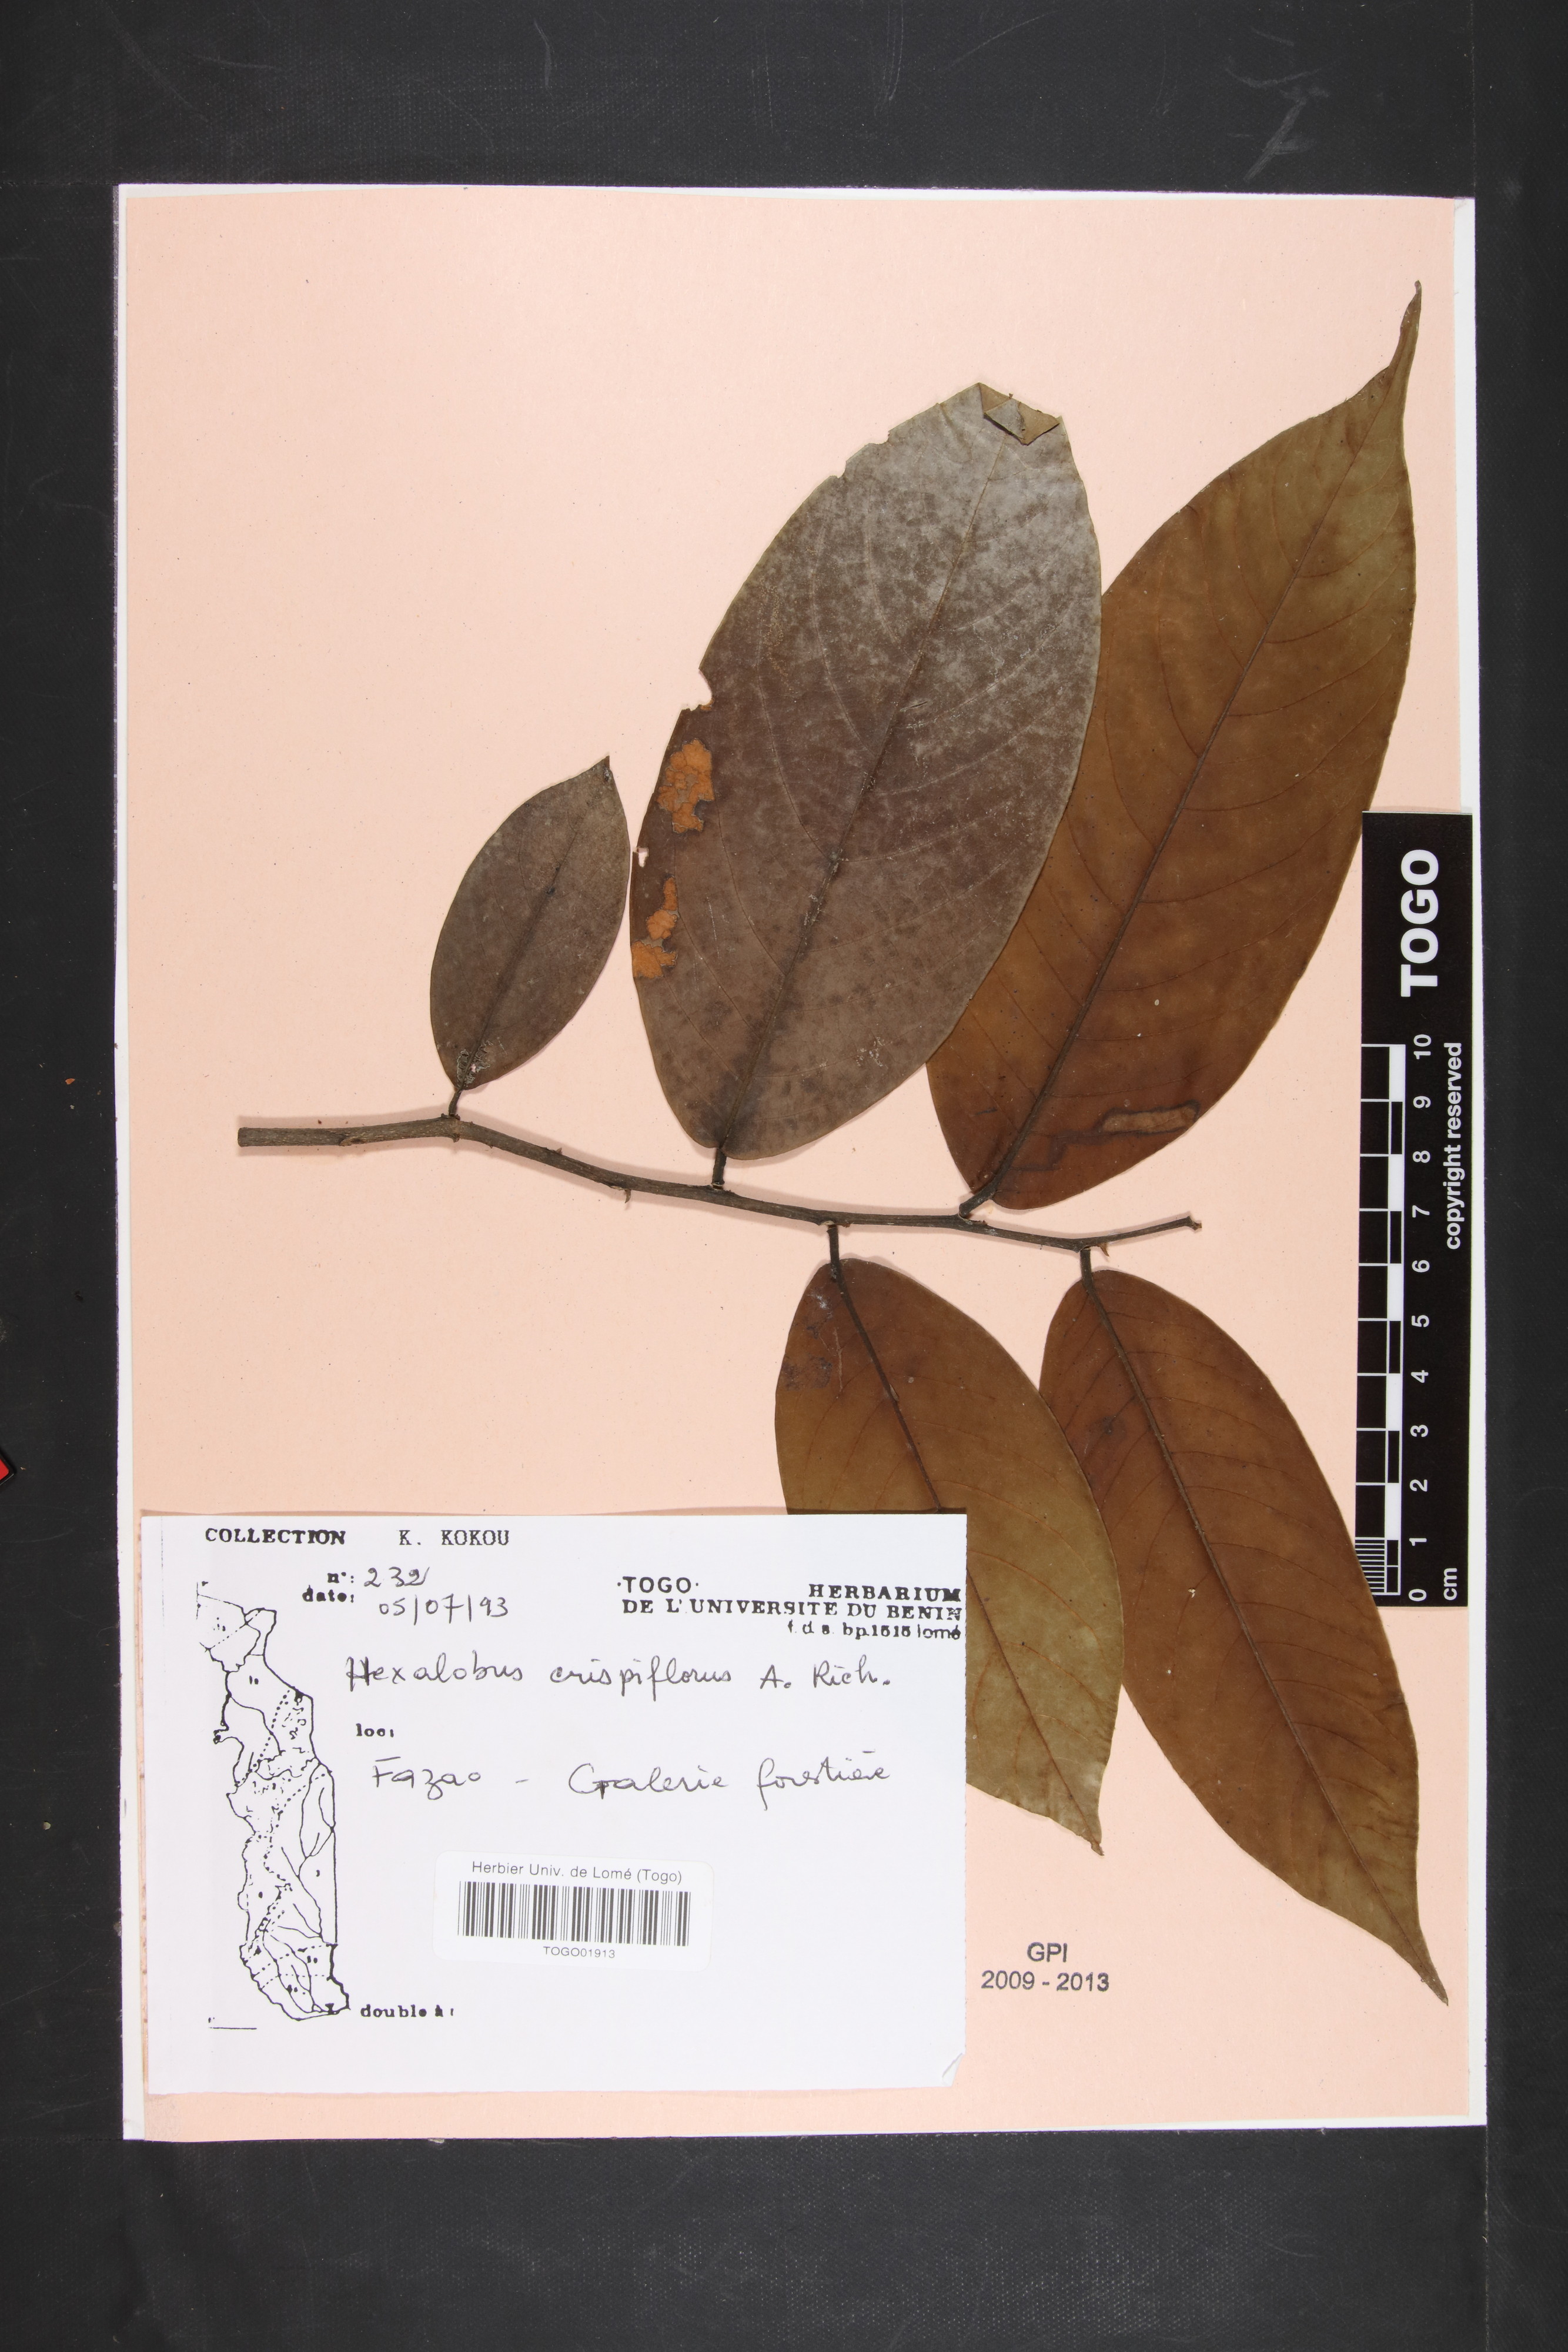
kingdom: Plantae
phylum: Tracheophyta
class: Magnoliopsida
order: Magnoliales
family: Annonaceae
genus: Hexalobus
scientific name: Hexalobus crispiflorus
